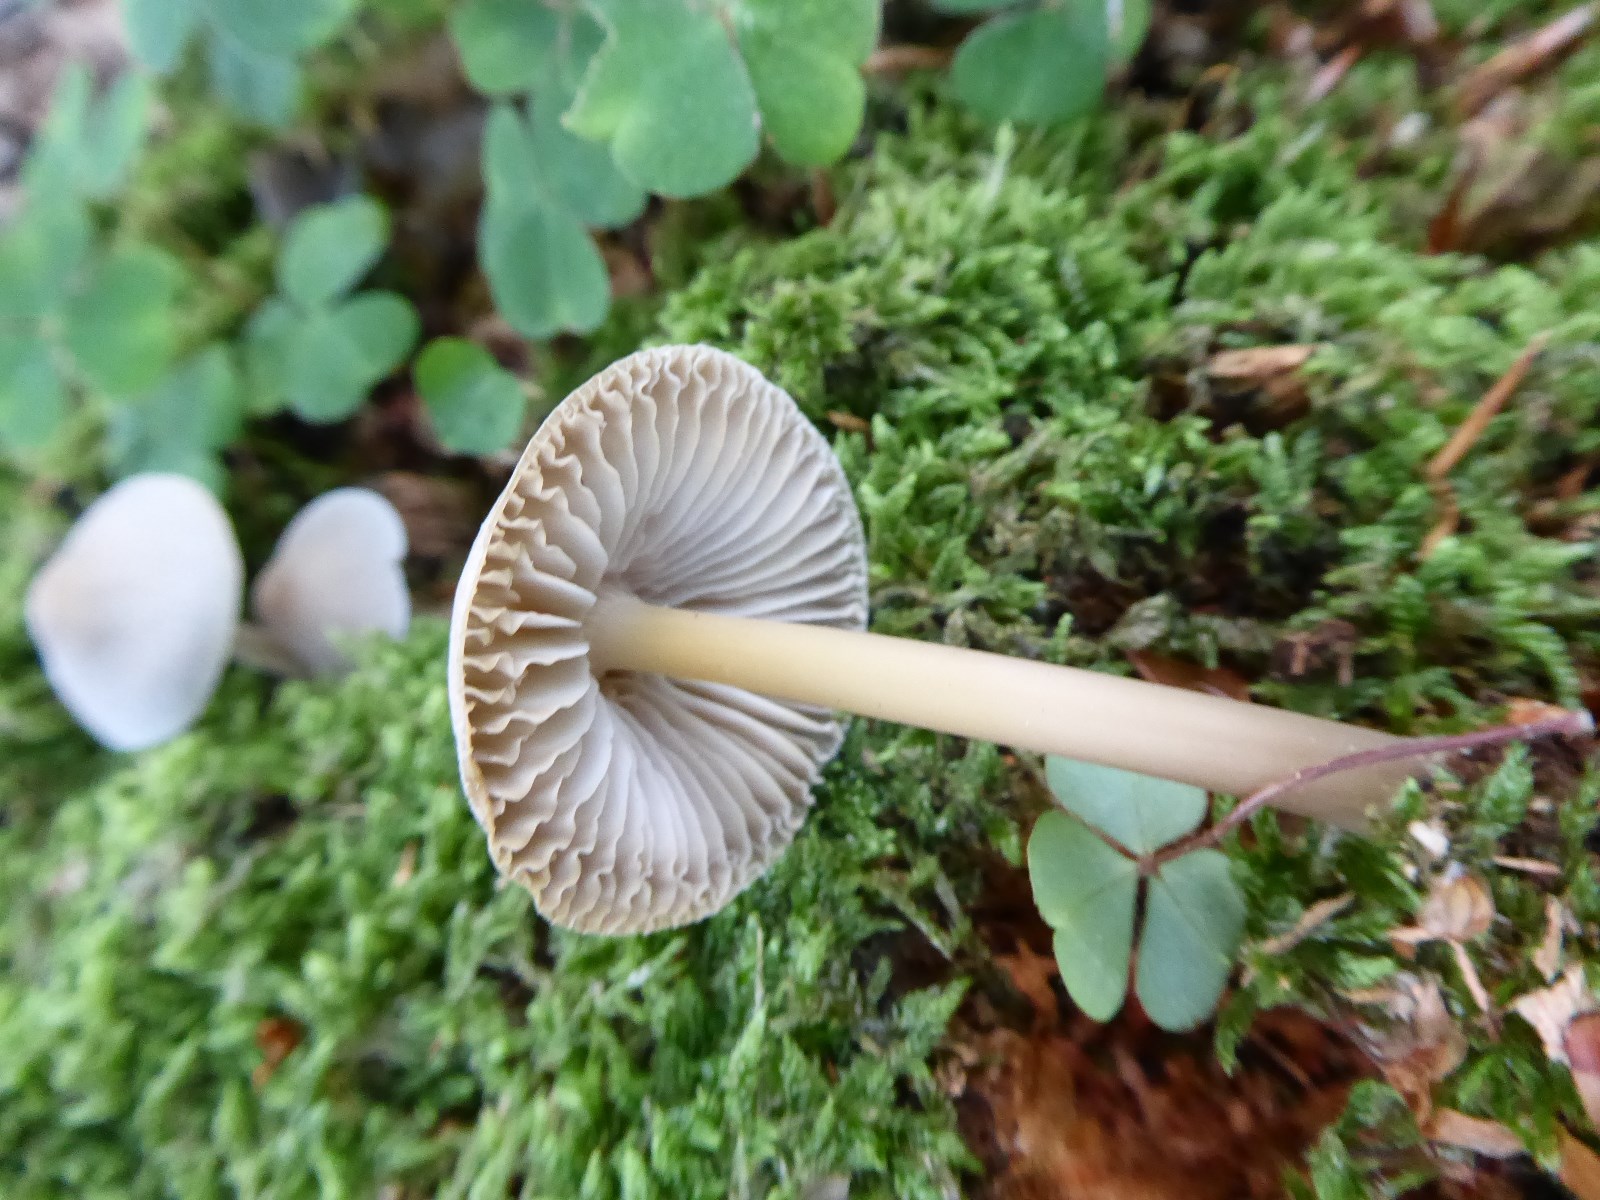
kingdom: Fungi
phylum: Basidiomycota
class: Agaricomycetes
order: Agaricales
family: Mycenaceae
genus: Mycena
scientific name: Mycena galericulata
